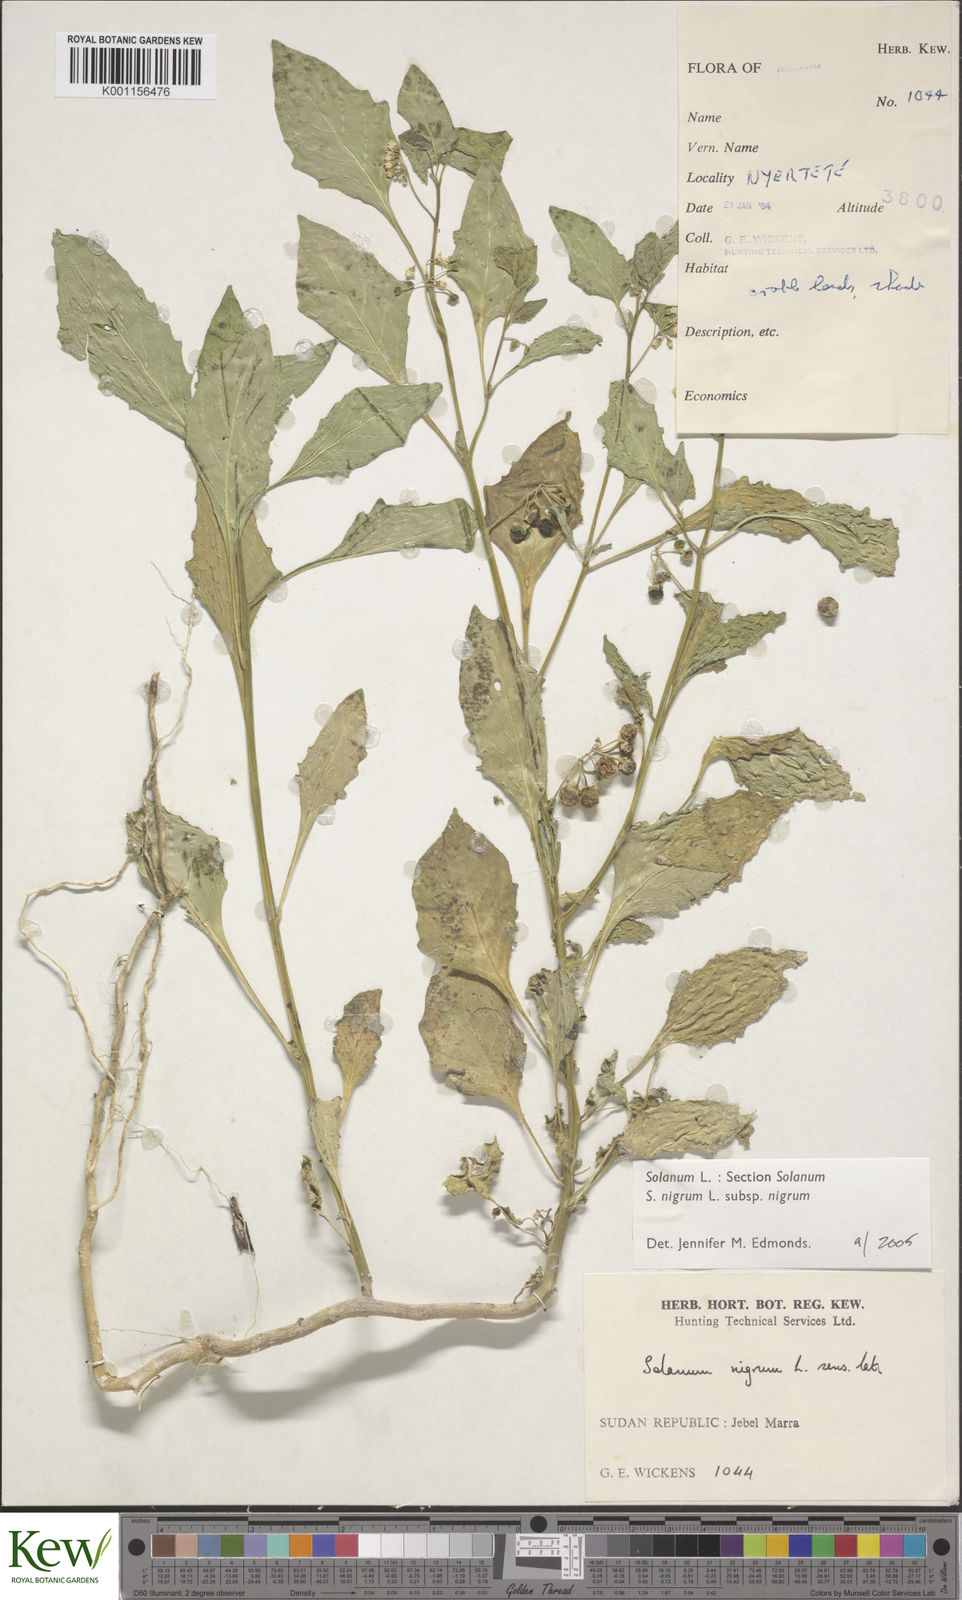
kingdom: Plantae
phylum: Tracheophyta
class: Magnoliopsida
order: Solanales
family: Solanaceae
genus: Solanum
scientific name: Solanum tarderemotum
